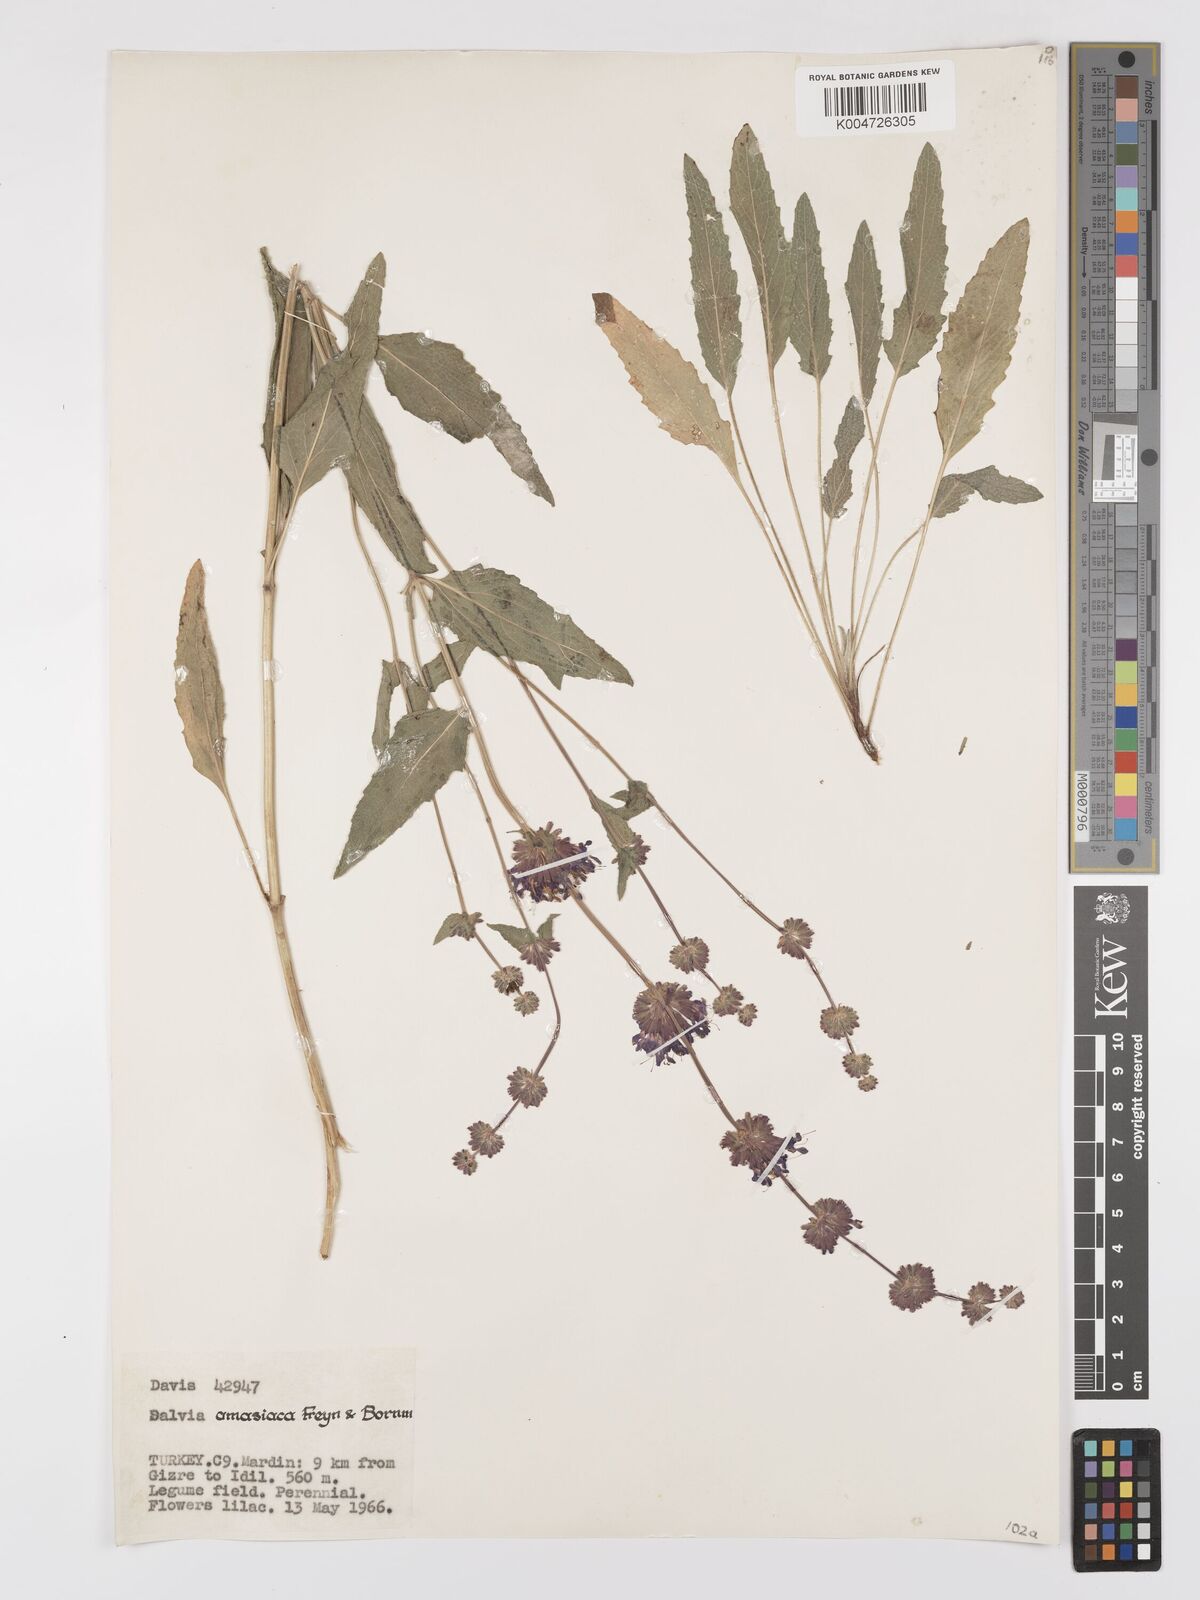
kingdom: Plantae
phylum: Tracheophyta
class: Magnoliopsida
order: Lamiales
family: Lamiaceae
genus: Salvia
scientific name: Salvia verticillata
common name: Whorled clary
